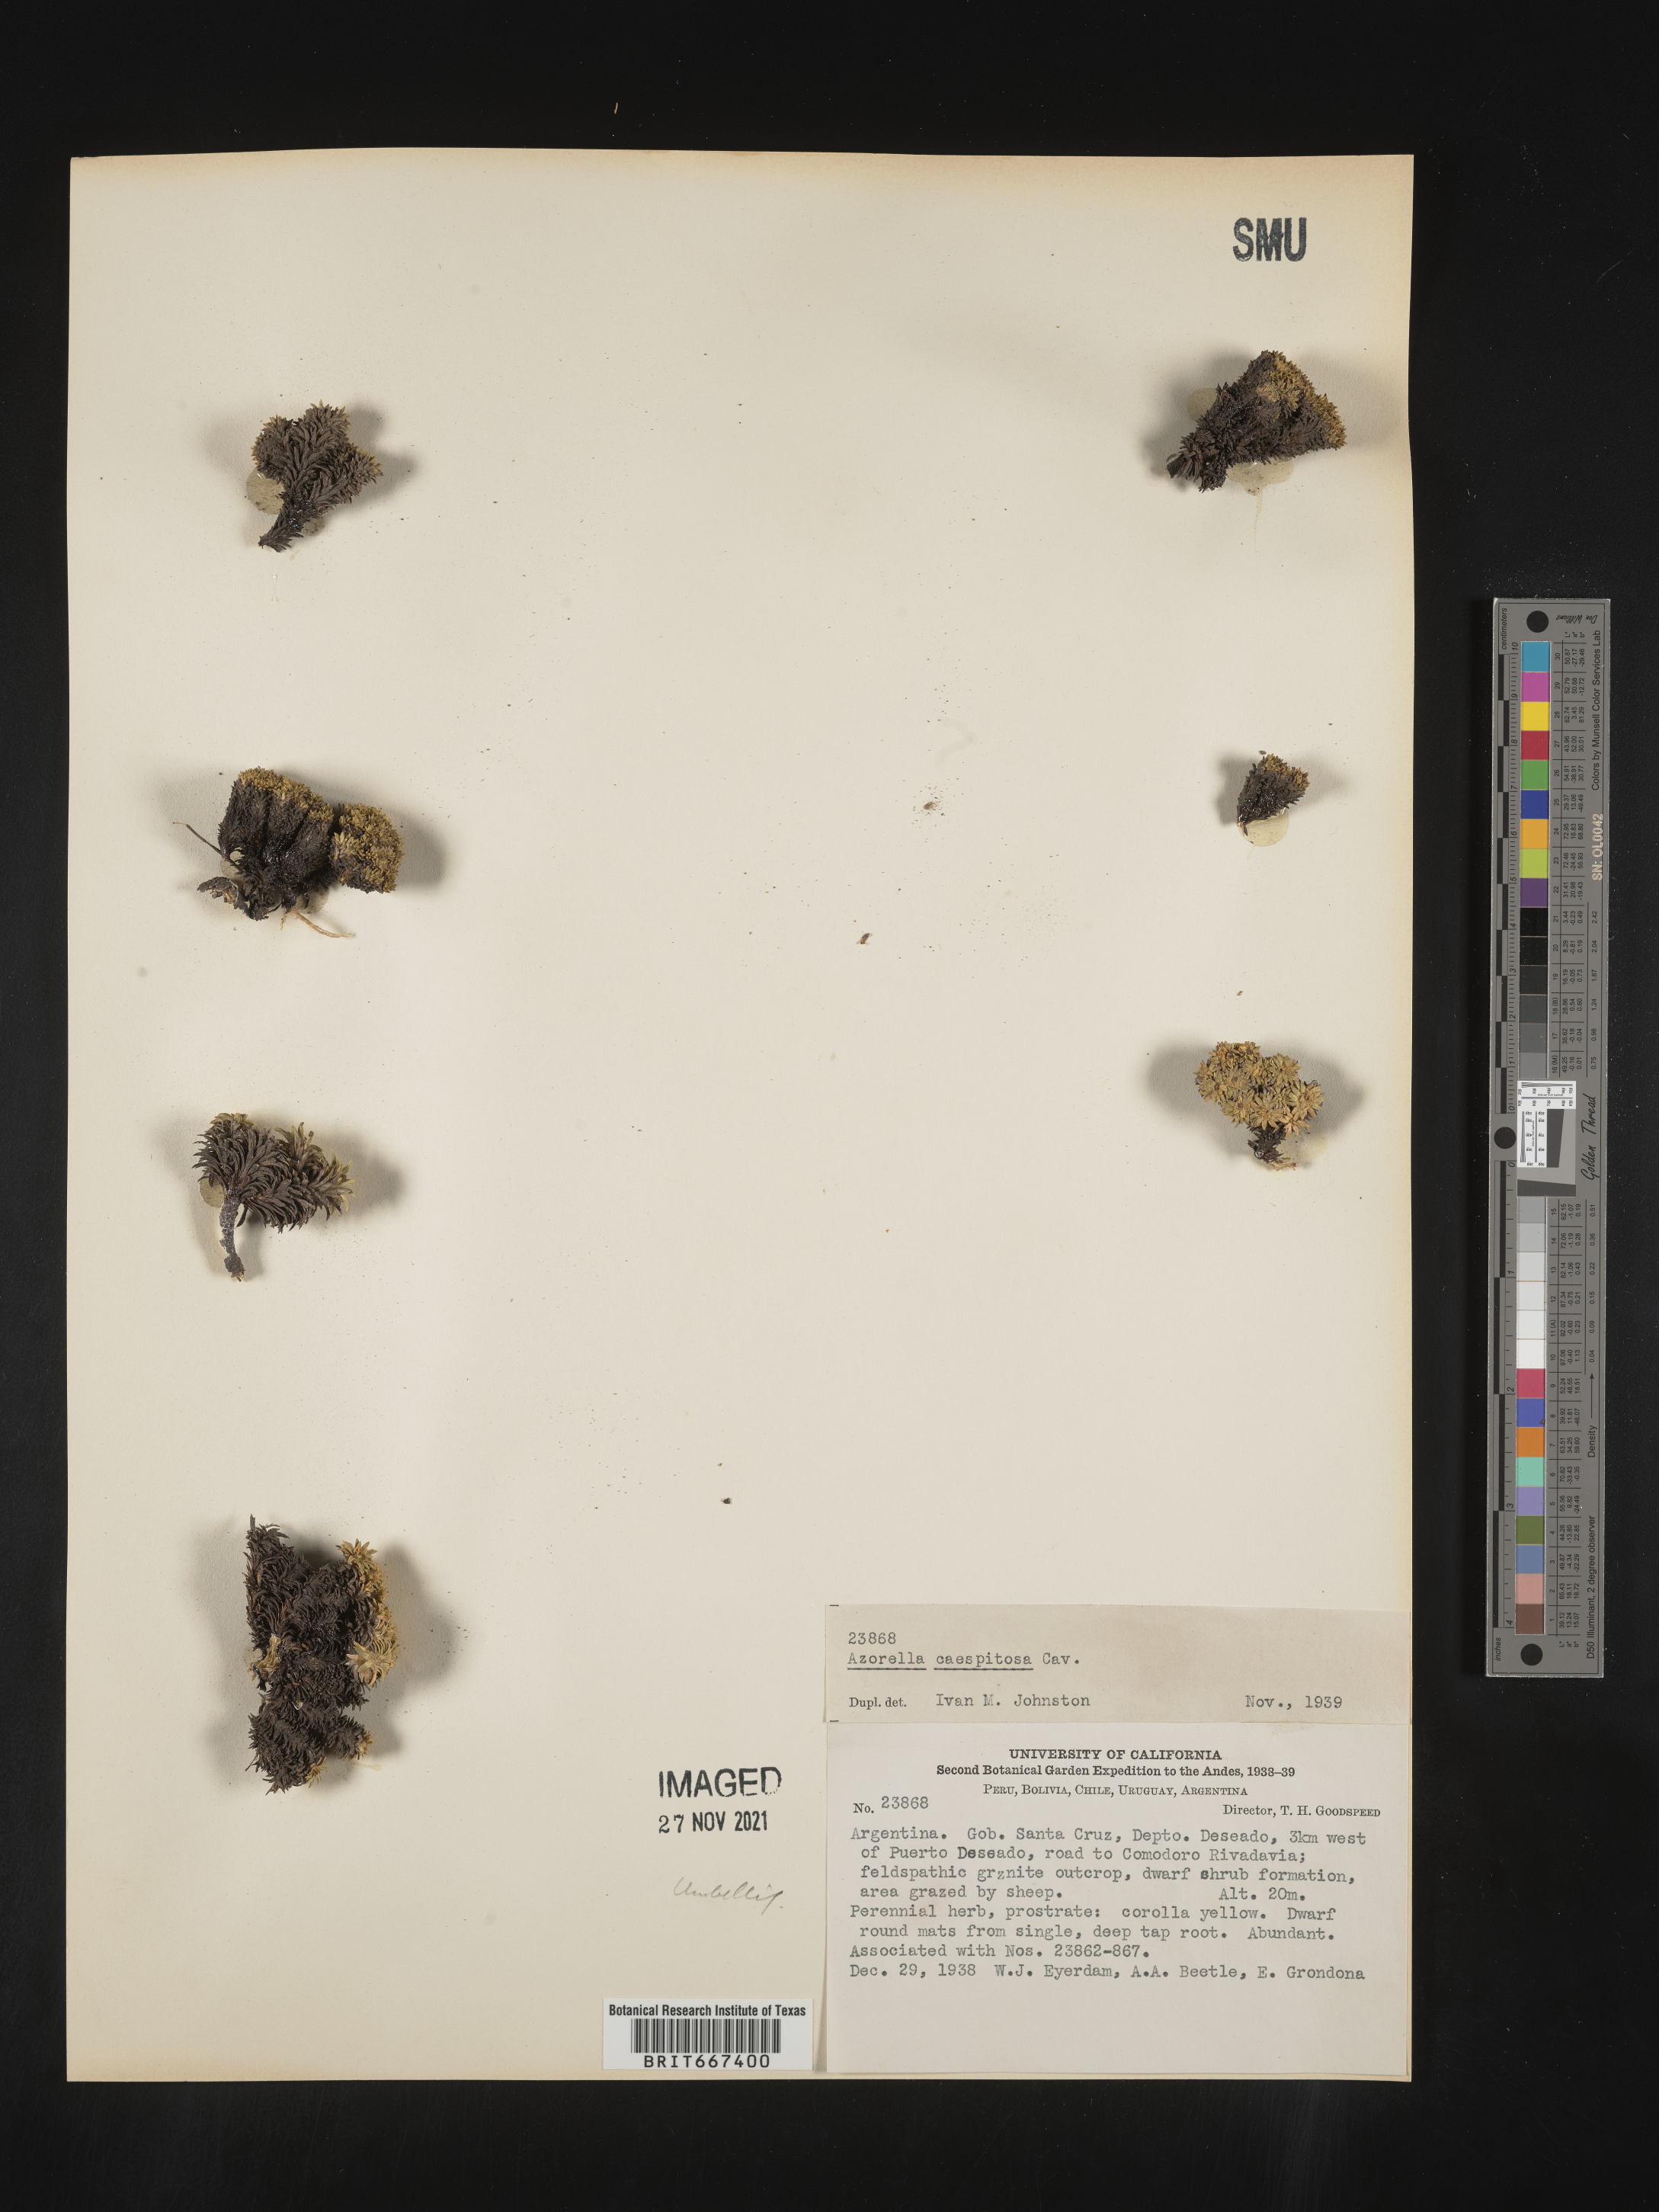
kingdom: Plantae
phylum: Tracheophyta
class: Magnoliopsida
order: Apiales
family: Apiaceae
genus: Azorella
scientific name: Azorella
